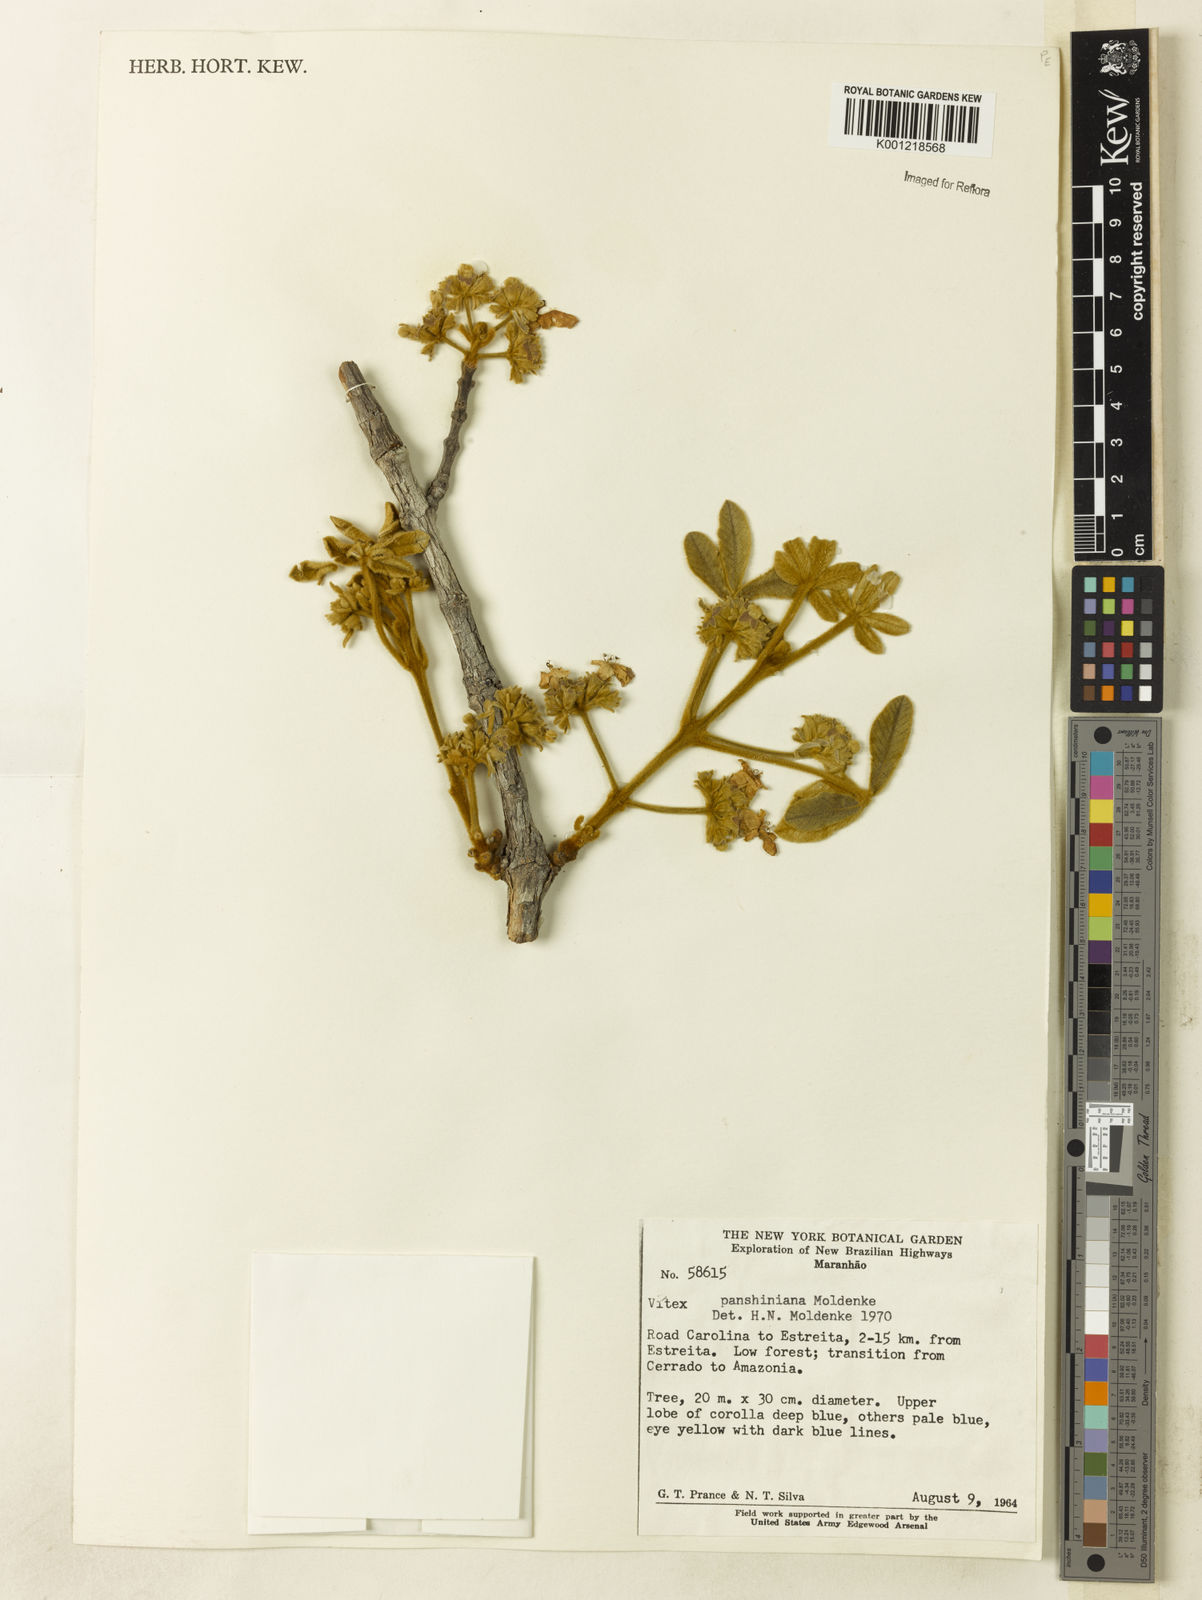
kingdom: Plantae
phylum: Tracheophyta
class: Magnoliopsida
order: Lamiales
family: Lamiaceae
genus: Vitex
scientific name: Vitex panshiniana
